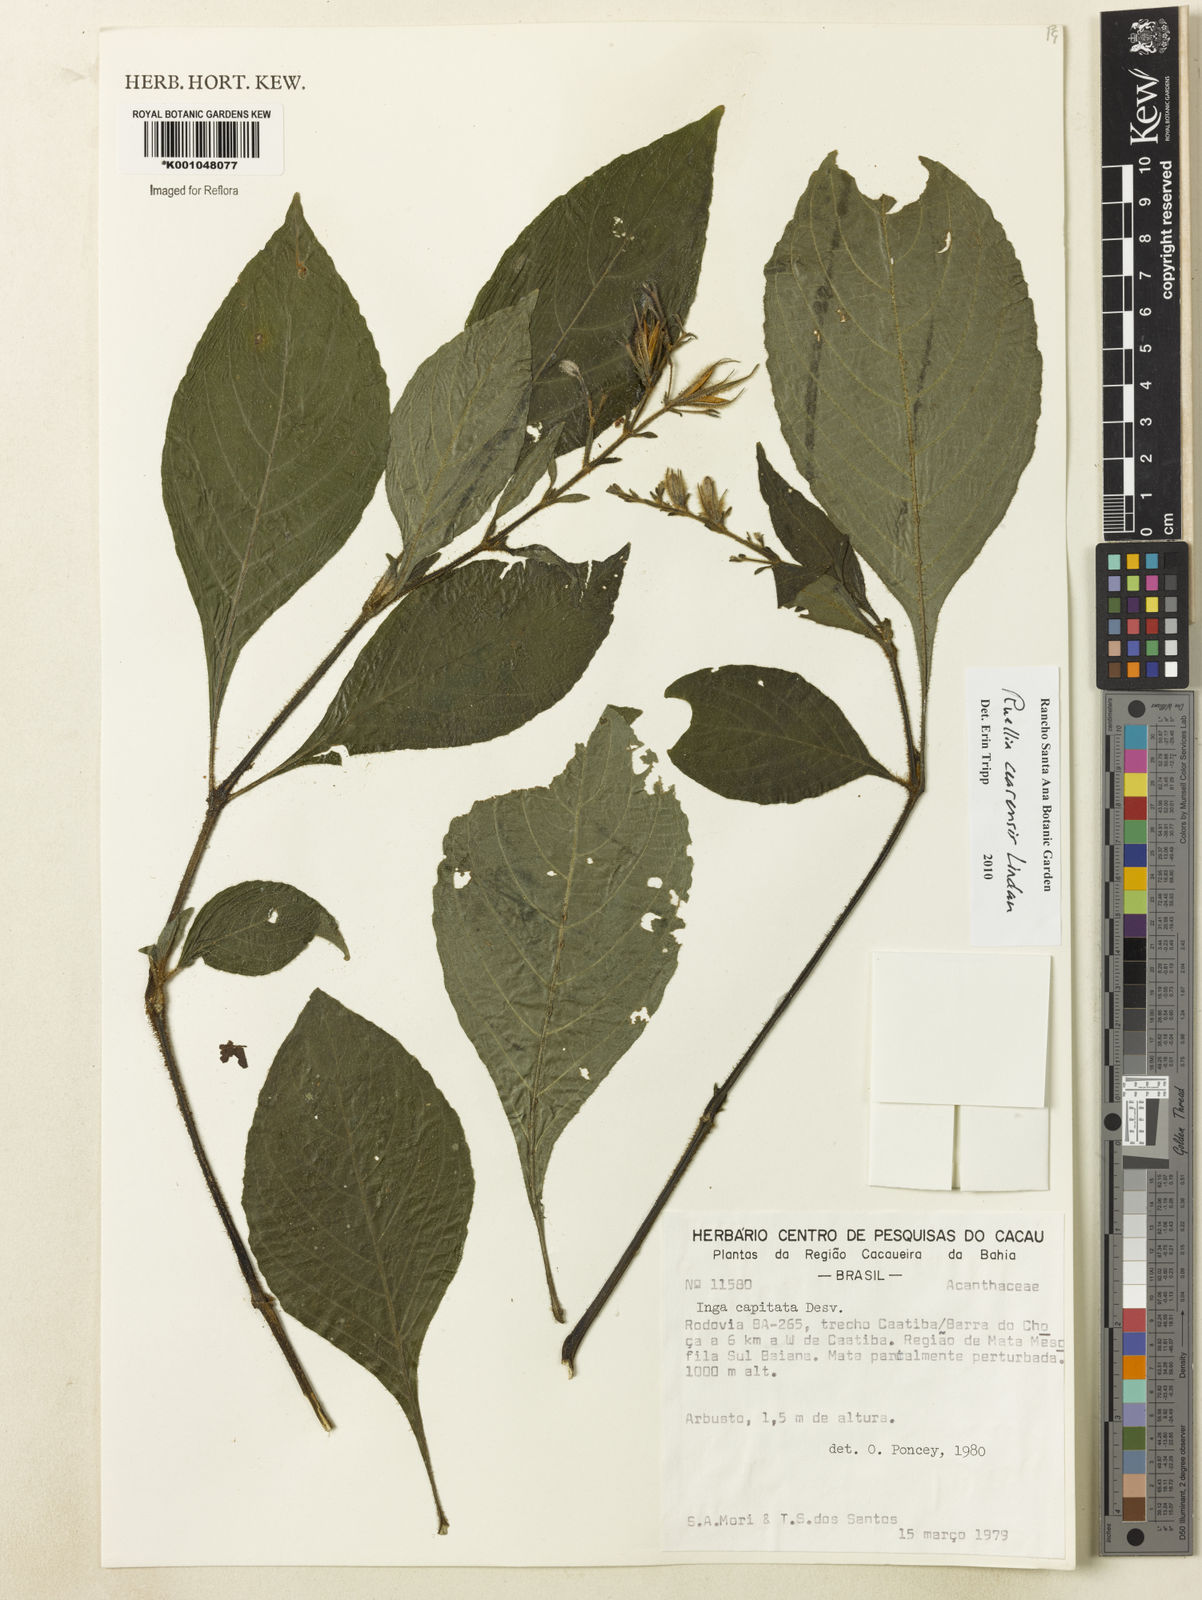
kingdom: Plantae
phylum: Tracheophyta
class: Magnoliopsida
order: Lamiales
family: Acanthaceae
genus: Ruellia
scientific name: Ruellia cearensis
